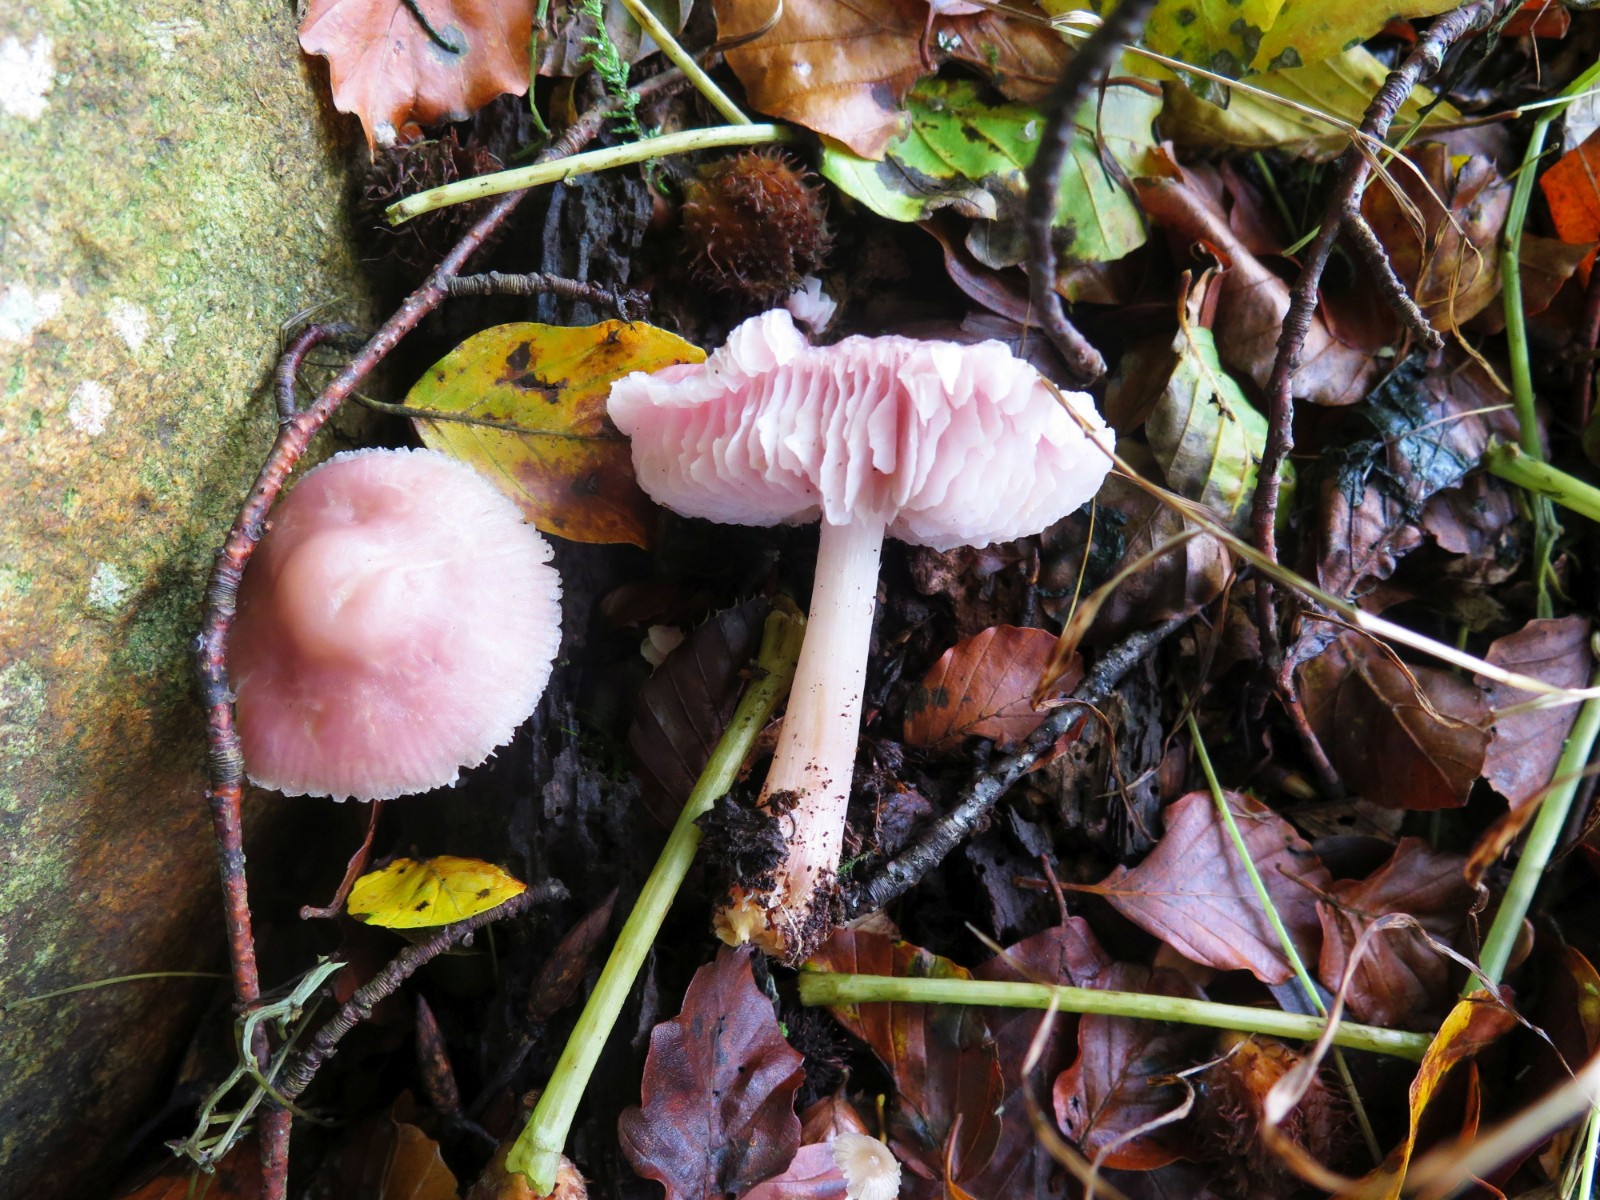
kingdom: Fungi
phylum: Basidiomycota
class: Agaricomycetes
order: Agaricales
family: Mycenaceae
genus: Mycena
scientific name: Mycena rosea
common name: rosa huesvamp
